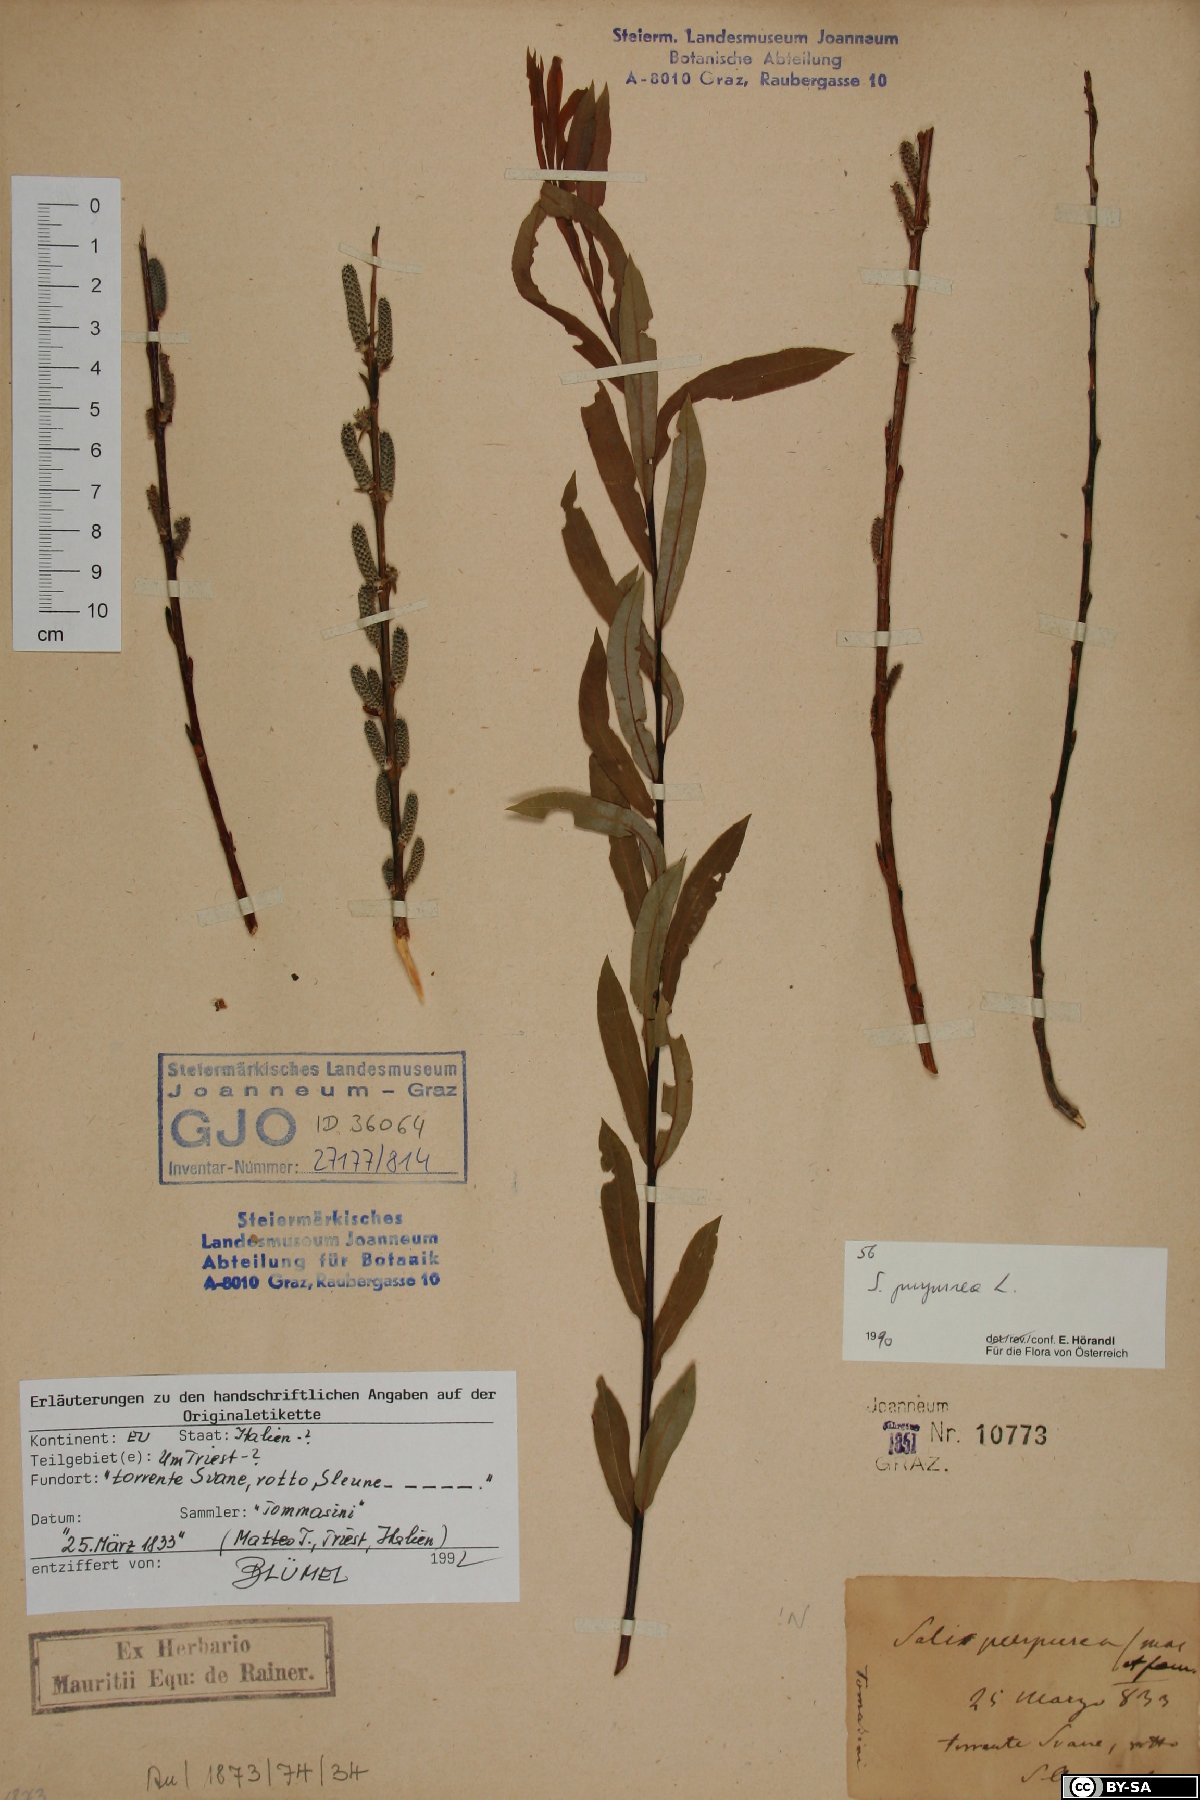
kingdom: Plantae
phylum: Tracheophyta
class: Magnoliopsida
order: Malpighiales
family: Salicaceae
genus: Salix
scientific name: Salix purpurea
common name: Purple willow
